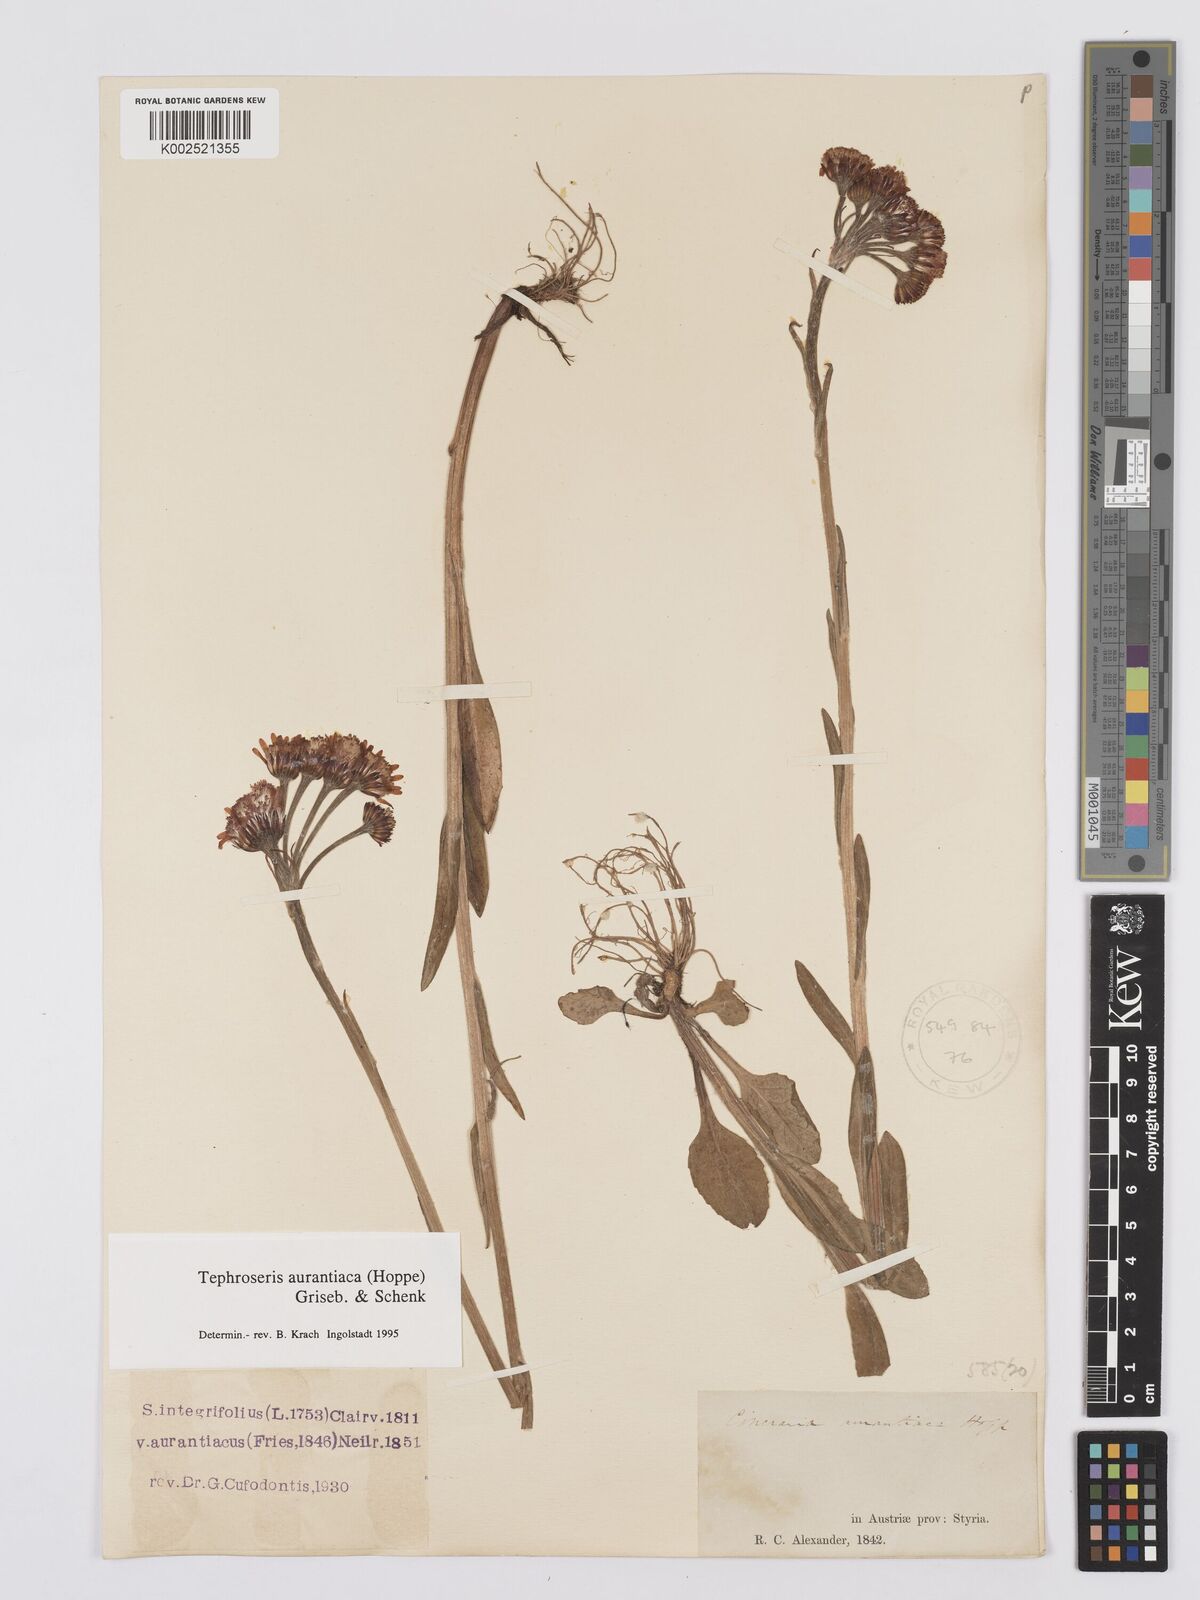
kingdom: Plantae
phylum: Tracheophyta
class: Magnoliopsida
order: Asterales
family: Asteraceae
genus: Tephroseris
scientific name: Tephroseris aurantiaca
